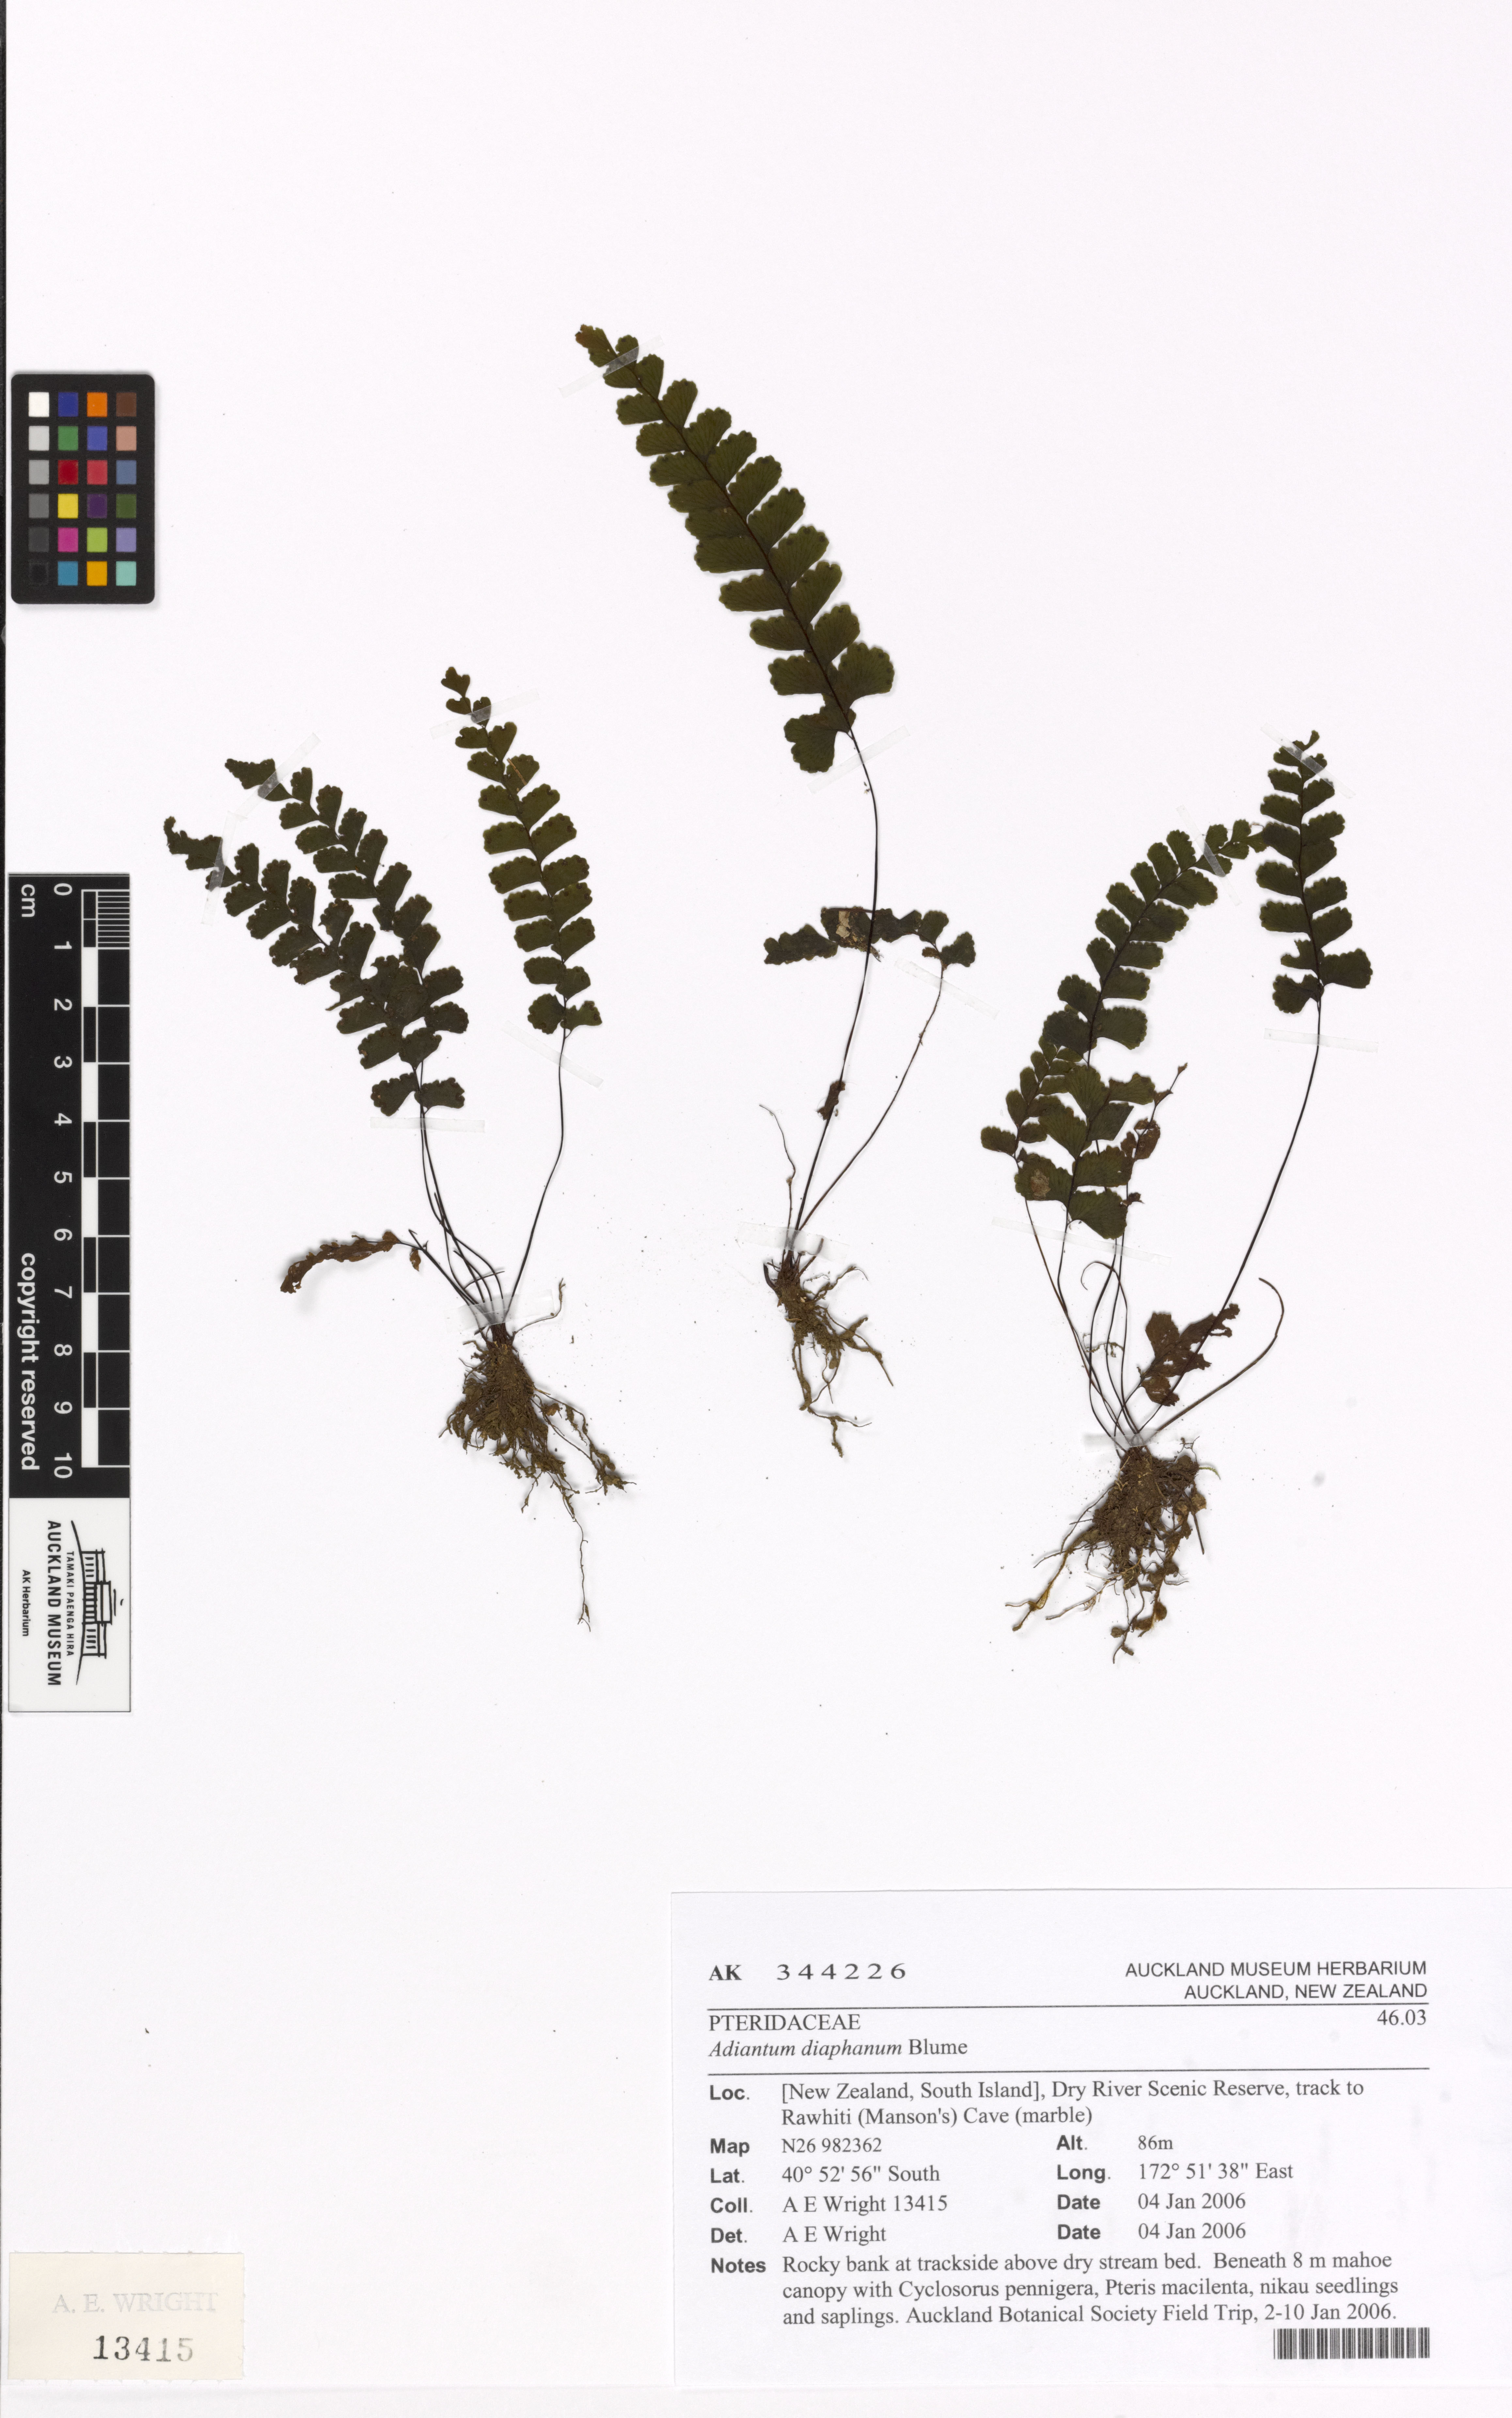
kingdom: Plantae
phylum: Tracheophyta
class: Polypodiopsida
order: Polypodiales
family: Pteridaceae
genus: Adiantum
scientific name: Adiantum diaphanum
